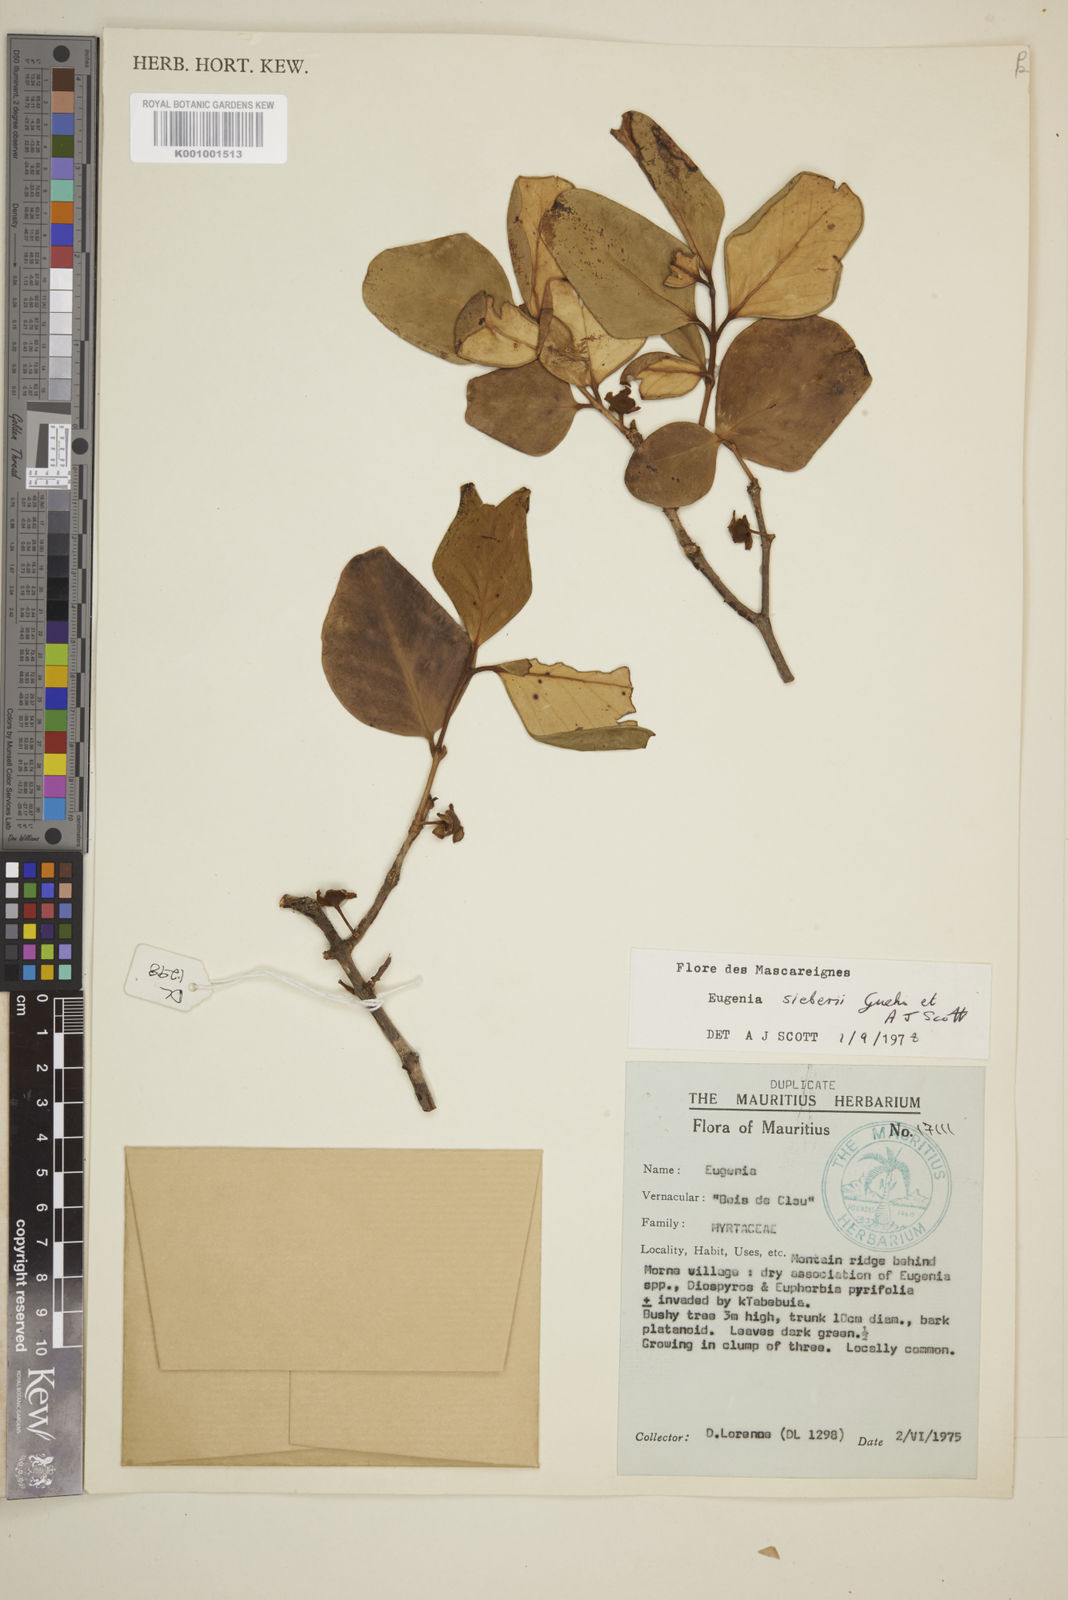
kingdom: Plantae
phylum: Tracheophyta
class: Magnoliopsida
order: Myrtales
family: Myrtaceae
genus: Eugenia
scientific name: Eugenia
